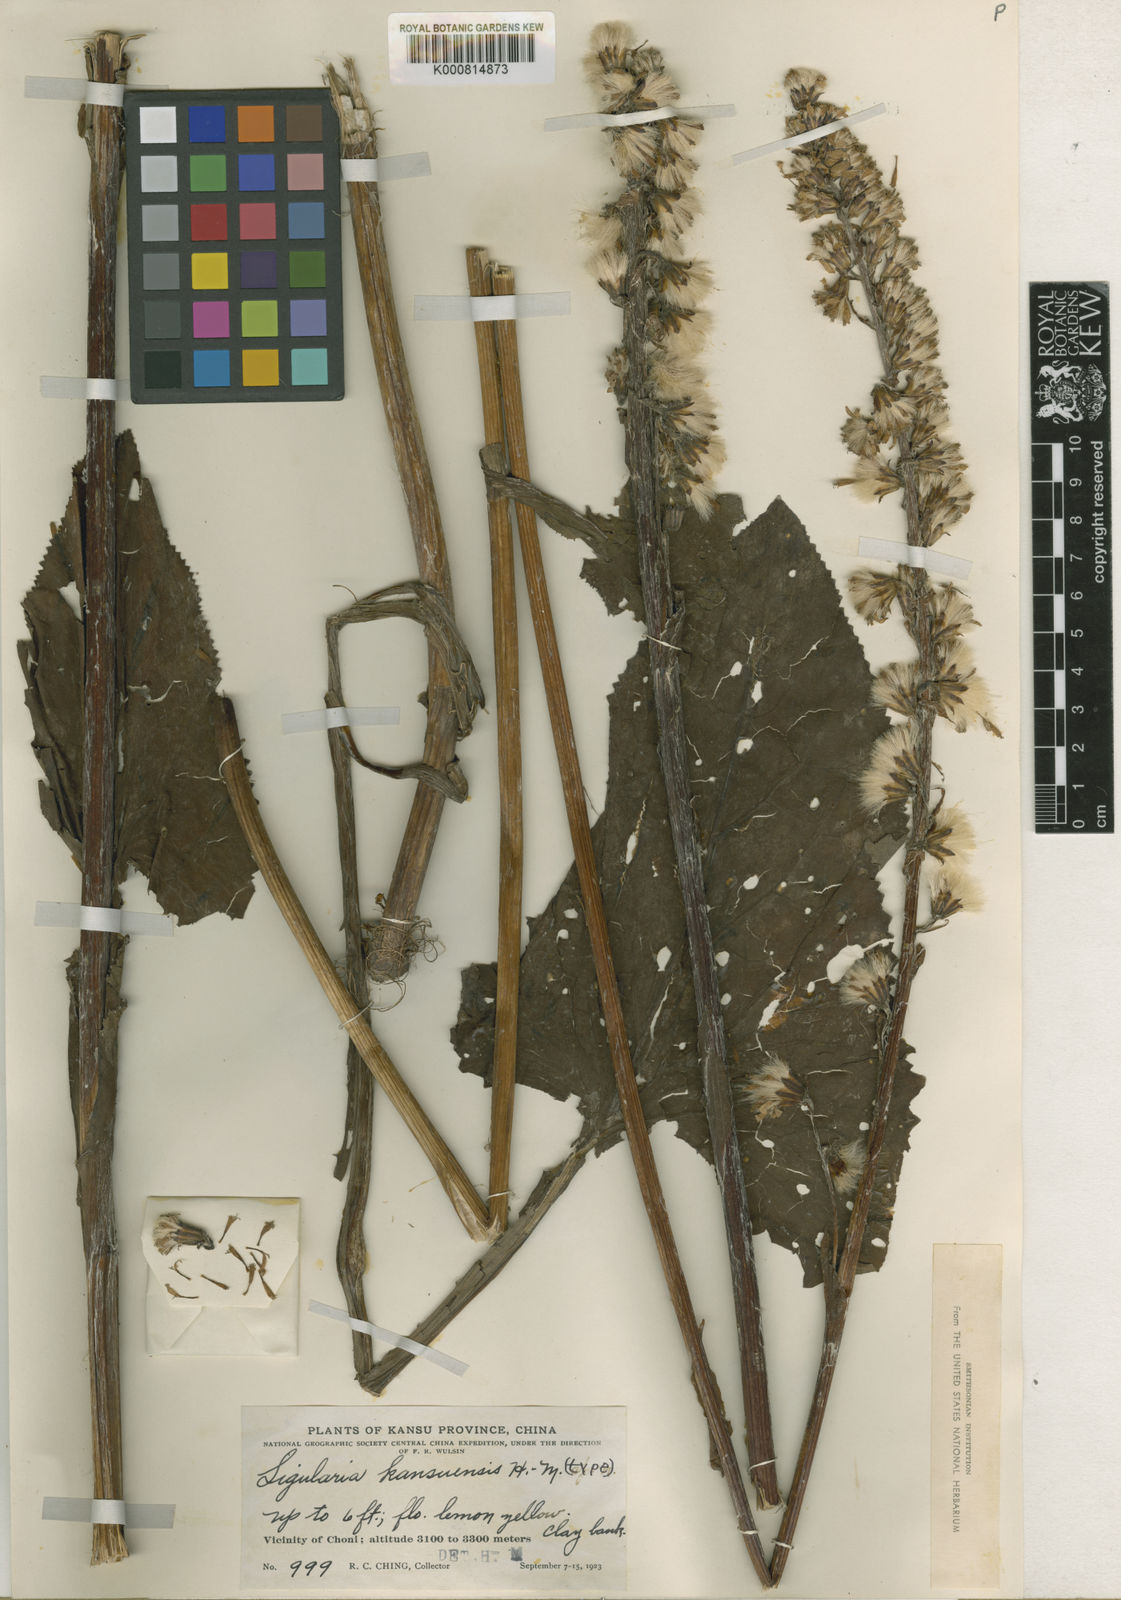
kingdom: Plantae
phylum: Tracheophyta
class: Magnoliopsida
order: Asterales
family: Asteraceae
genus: Ligularia
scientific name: Ligularia sagitta
